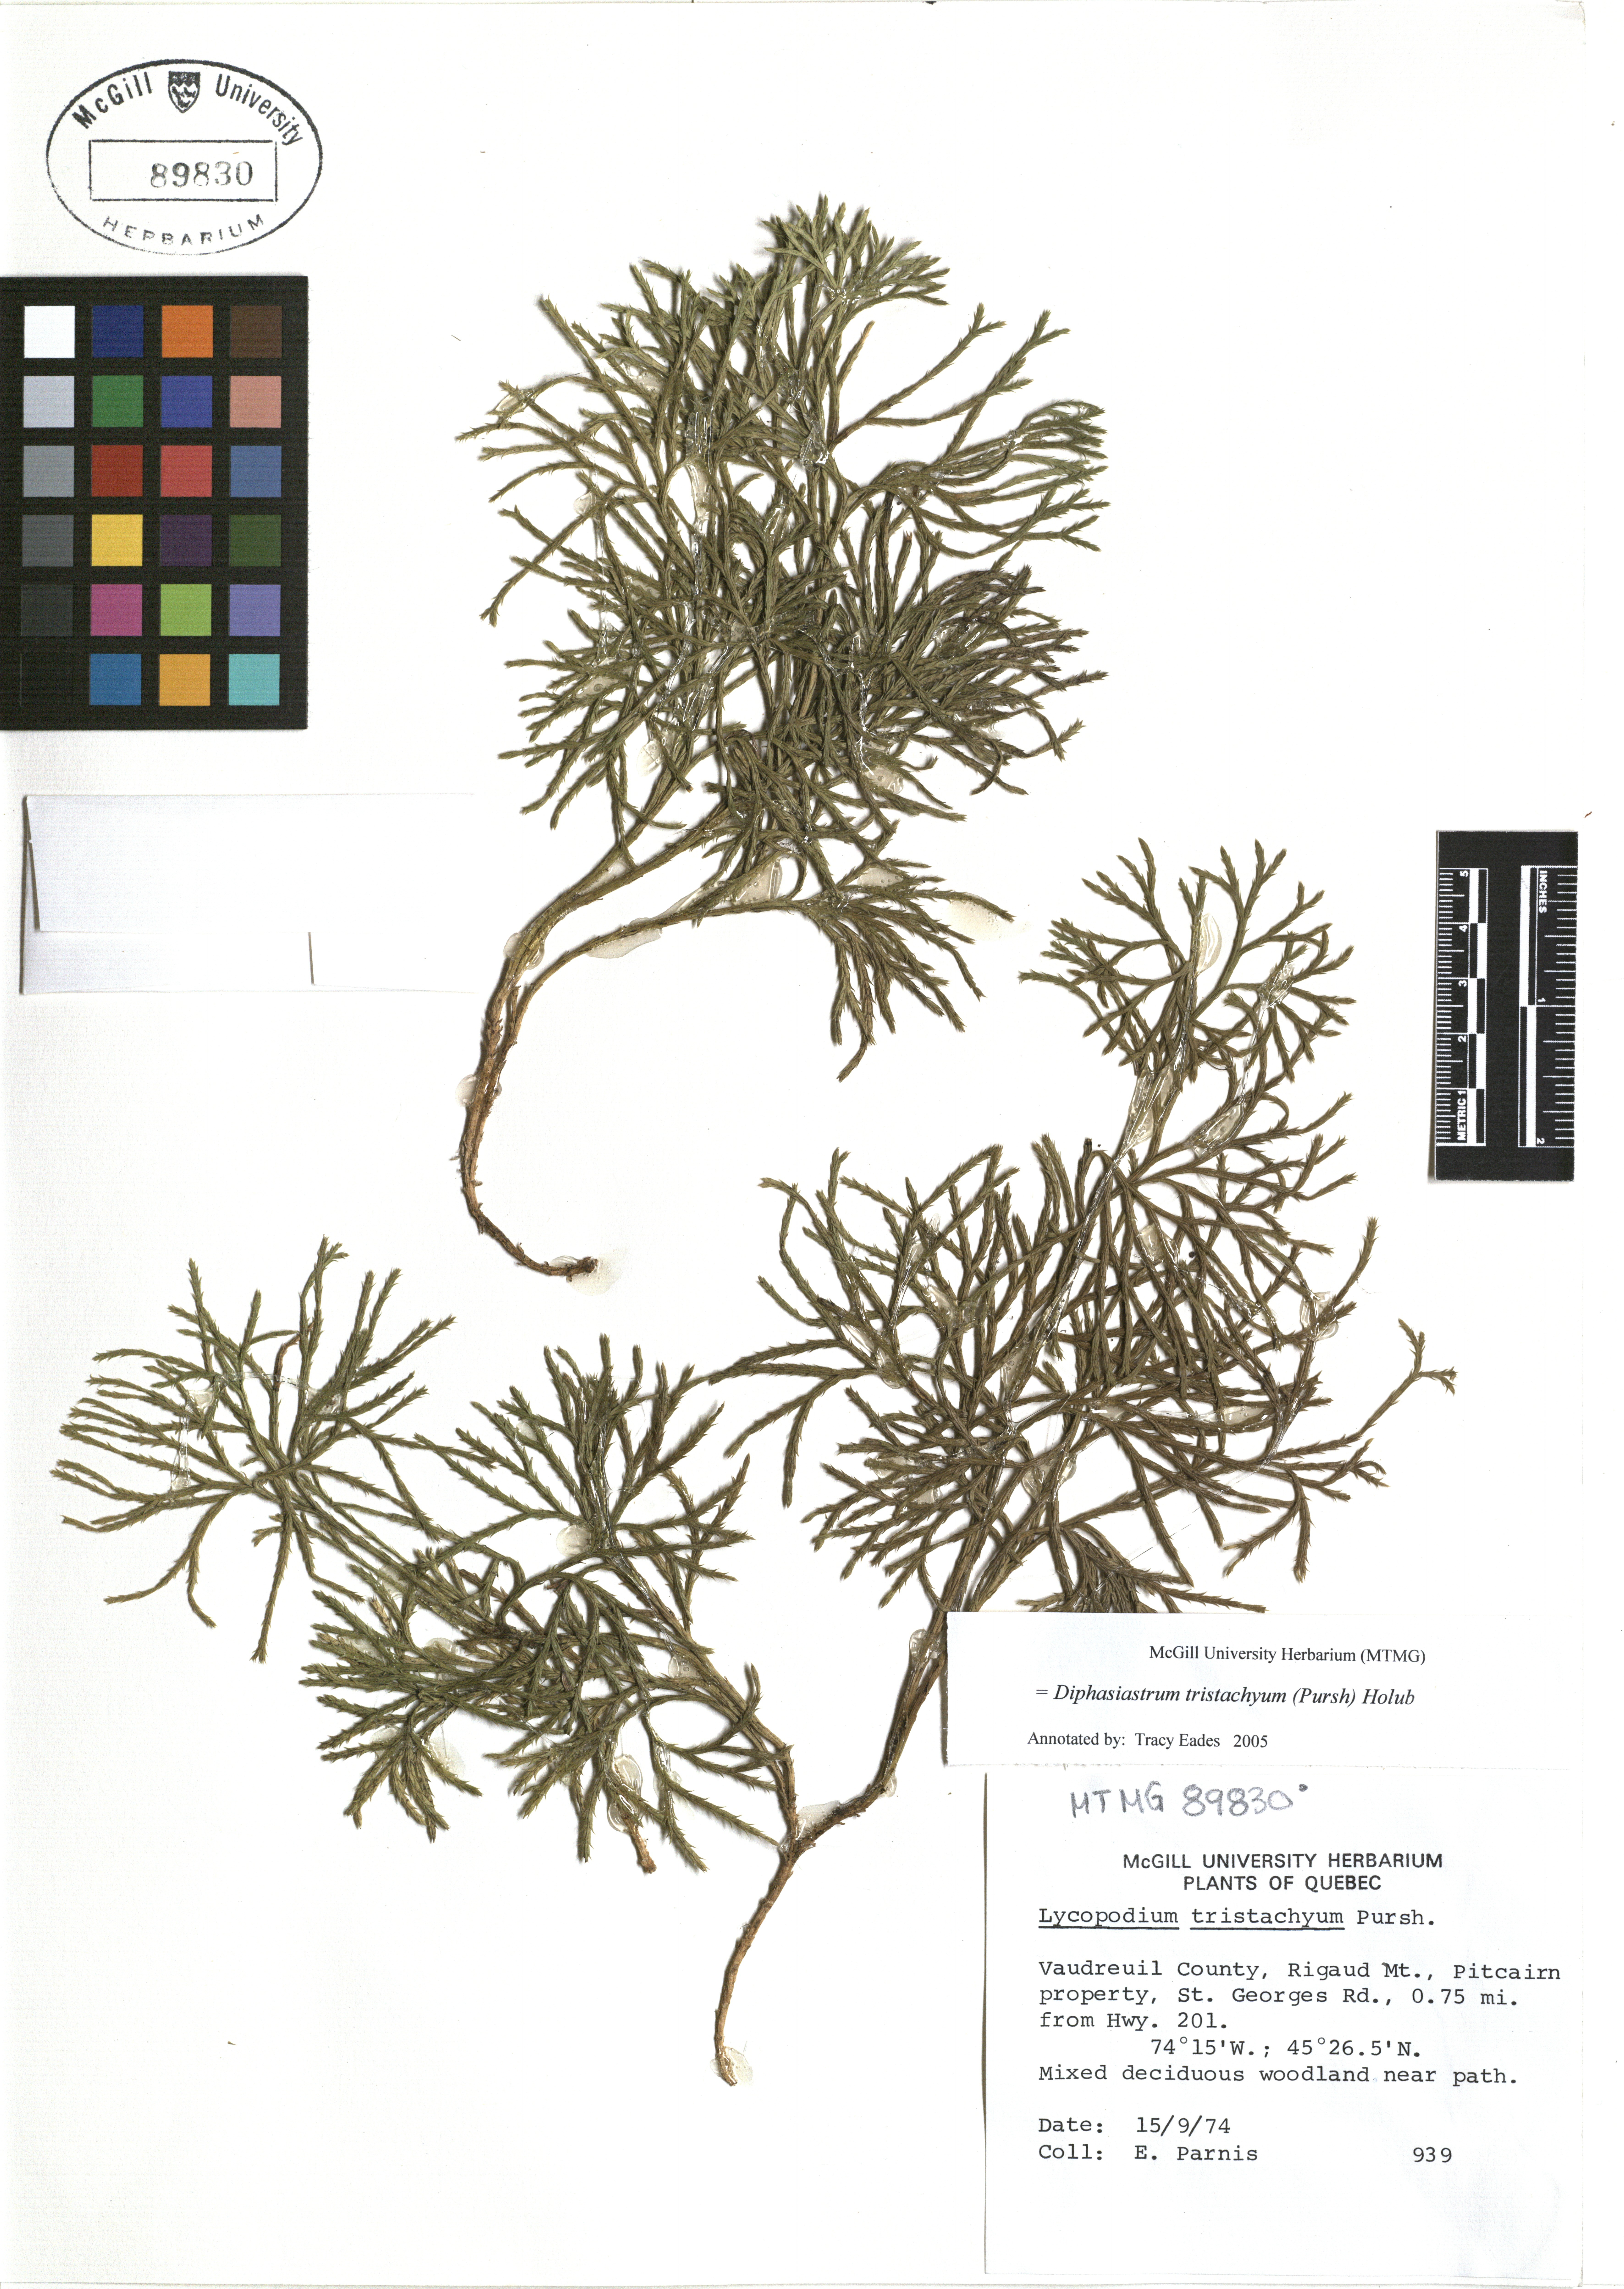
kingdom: Plantae
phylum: Tracheophyta
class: Lycopodiopsida
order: Lycopodiales
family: Lycopodiaceae
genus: Diphasiastrum
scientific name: Diphasiastrum tristachyum
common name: Blue ground-cedar
